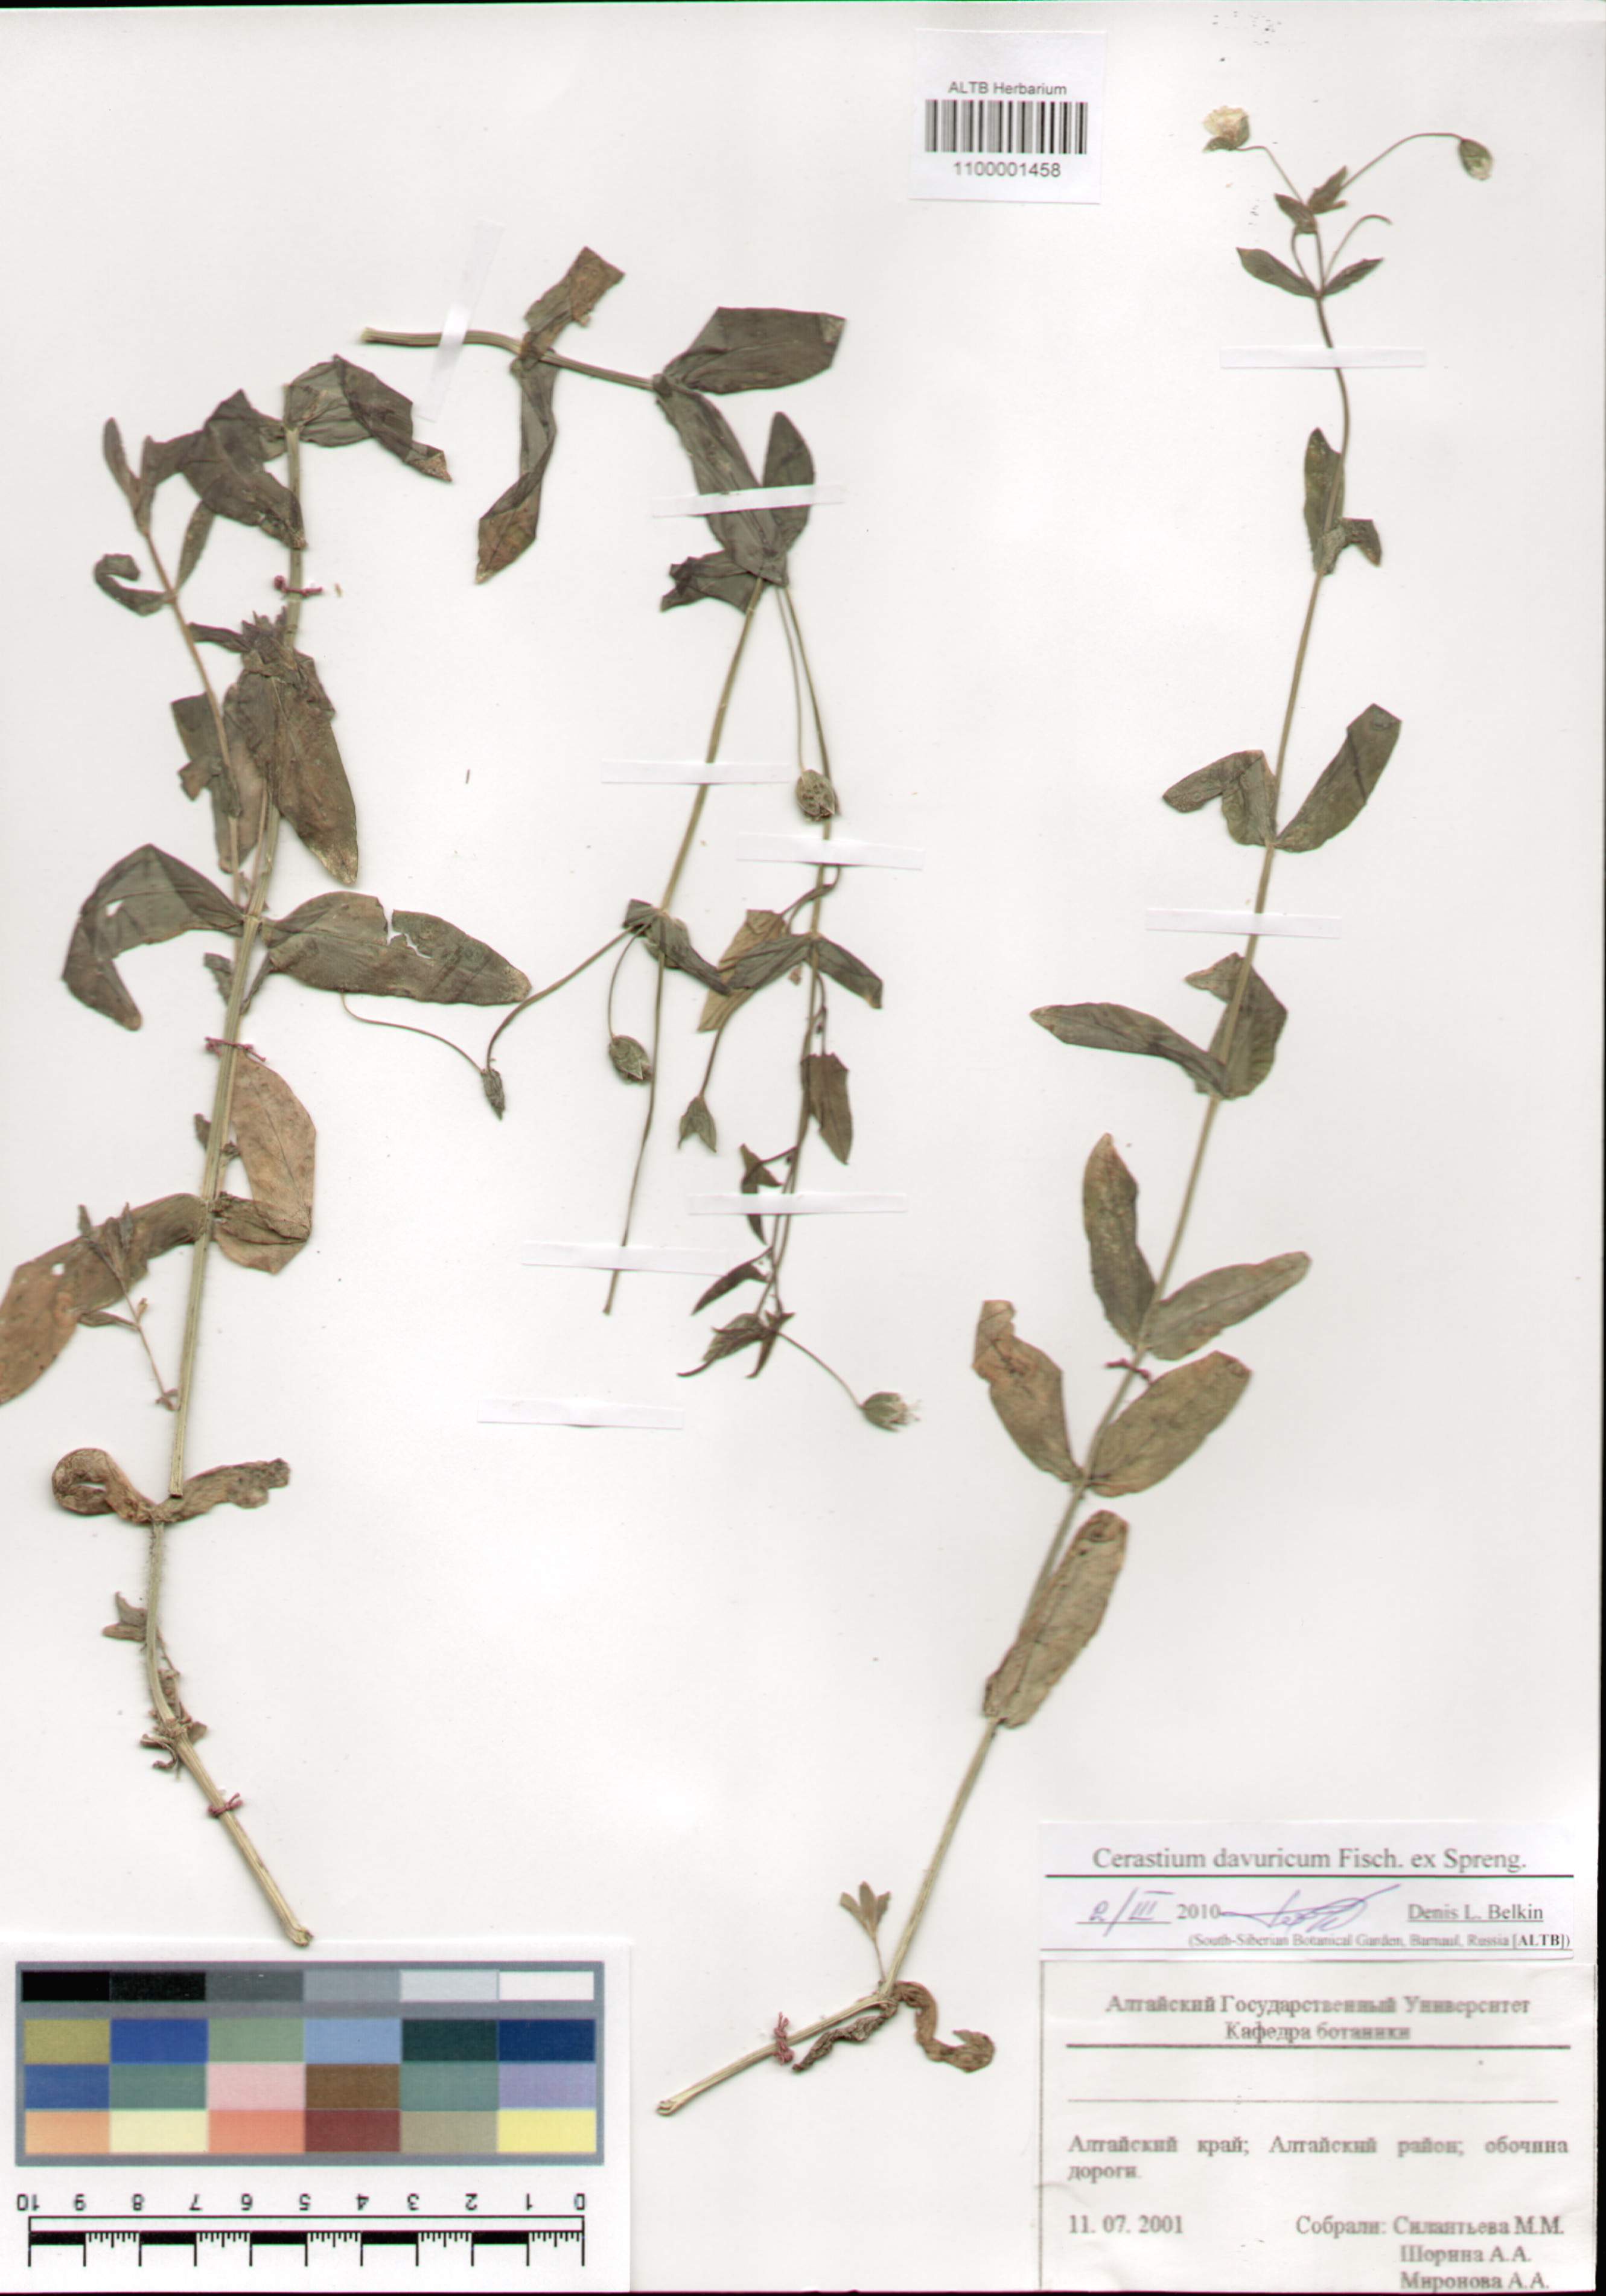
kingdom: Plantae
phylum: Tracheophyta
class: Magnoliopsida
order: Caryophyllales
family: Caryophyllaceae
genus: Dichodon
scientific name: Dichodon davuricum
